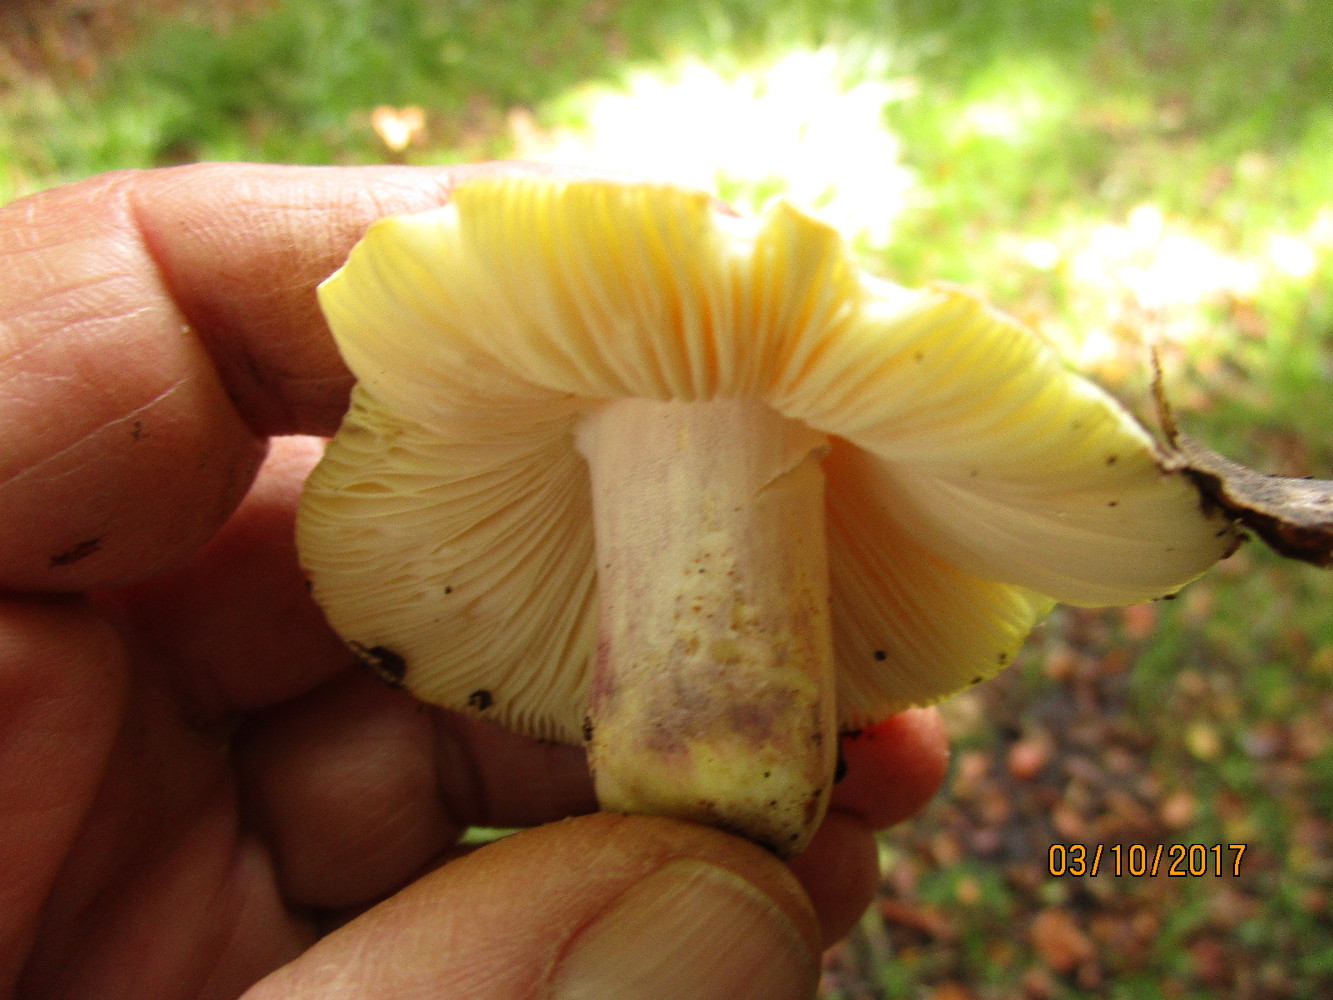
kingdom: Fungi
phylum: Basidiomycota
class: Agaricomycetes
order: Russulales
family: Russulaceae
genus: Russula
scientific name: Russula violeipes
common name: ferskengul skørhat
